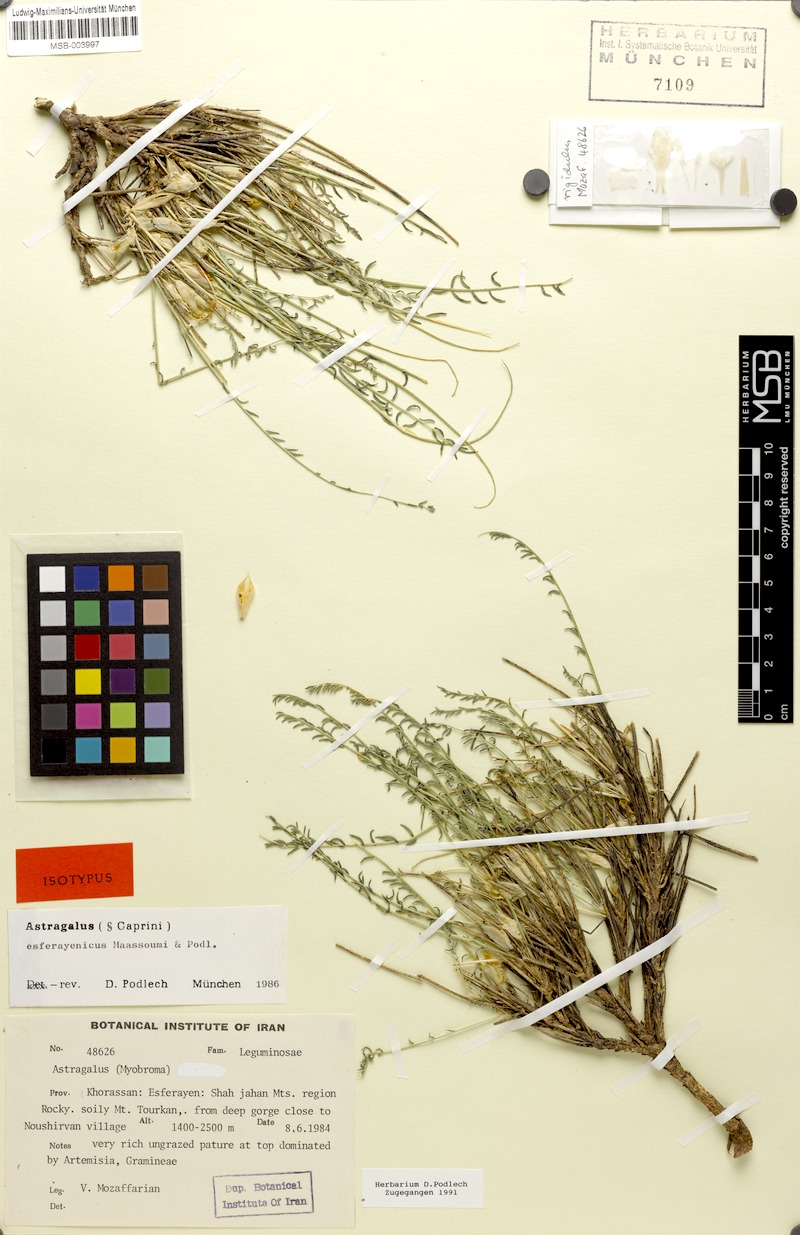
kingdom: Plantae
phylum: Tracheophyta
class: Magnoliopsida
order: Fabales
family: Fabaceae
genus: Astragalus
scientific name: Astragalus esferayenicus
